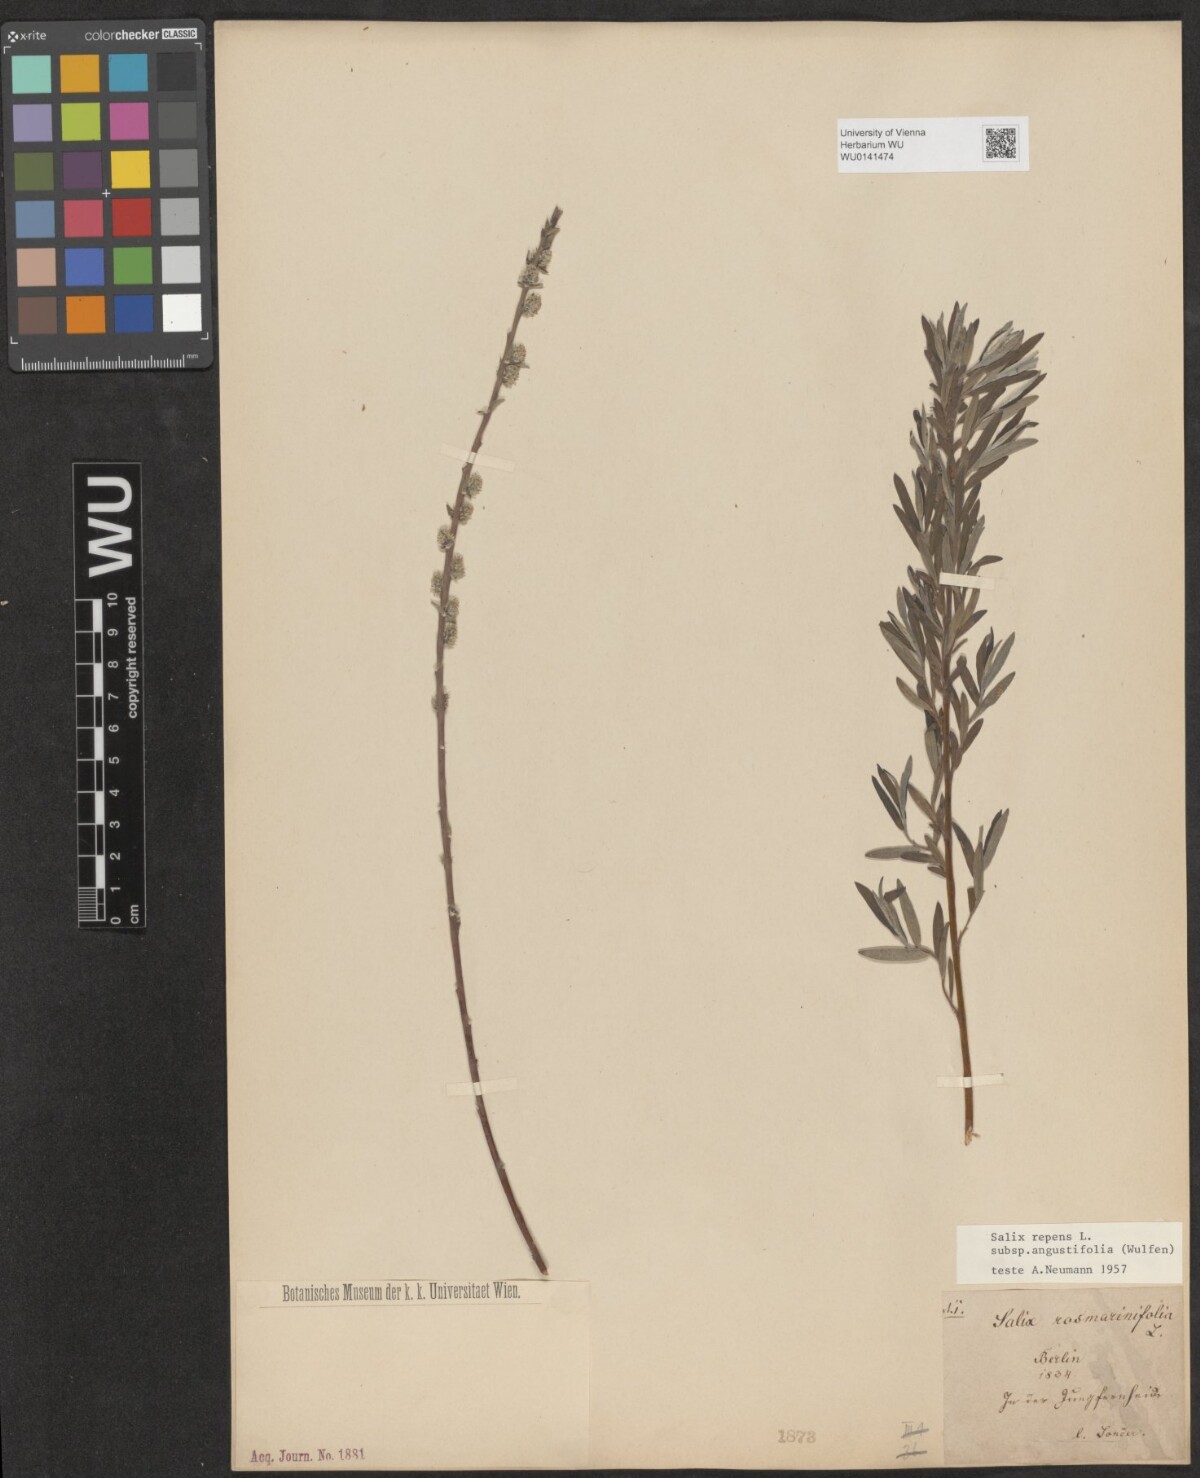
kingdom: Plantae
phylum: Tracheophyta
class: Magnoliopsida
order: Malpighiales
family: Salicaceae
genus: Salix
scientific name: Salix rosmarinifolia
